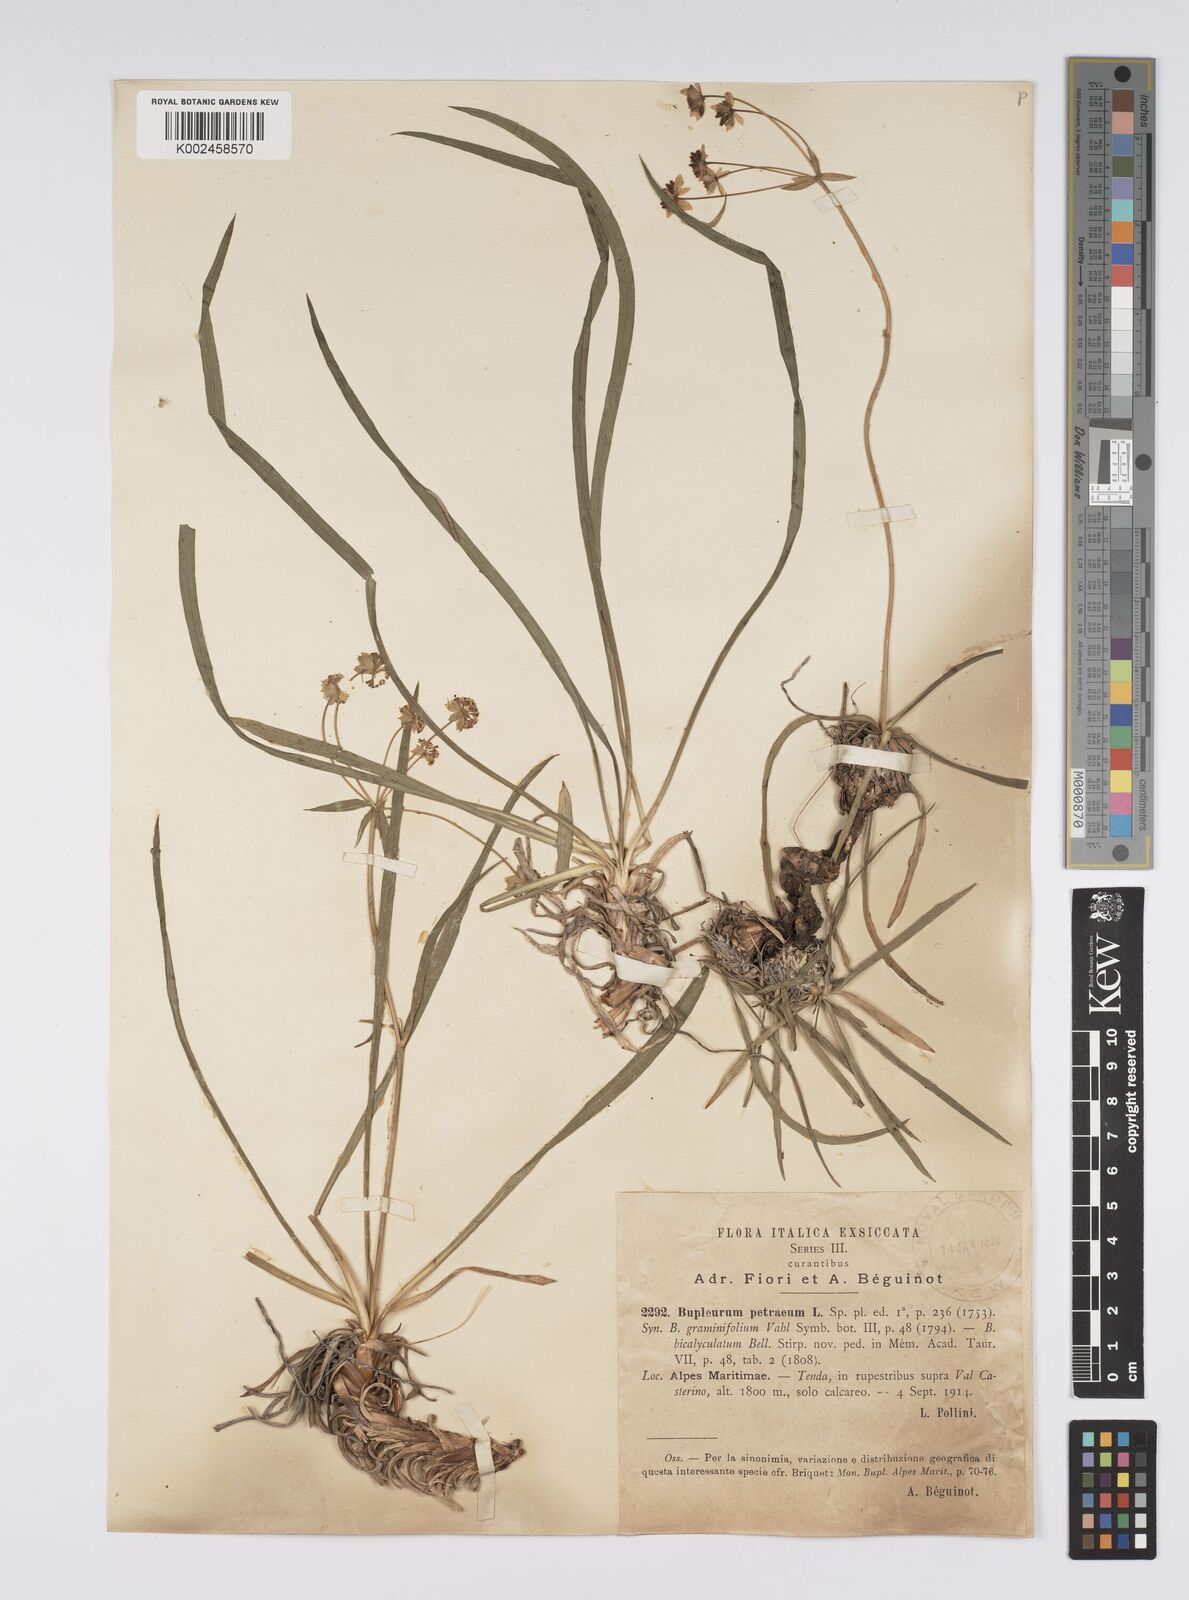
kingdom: Plantae
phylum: Tracheophyta
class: Magnoliopsida
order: Apiales
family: Apiaceae
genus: Bupleurum
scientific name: Bupleurum petraeum
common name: Rock hare's-ear
